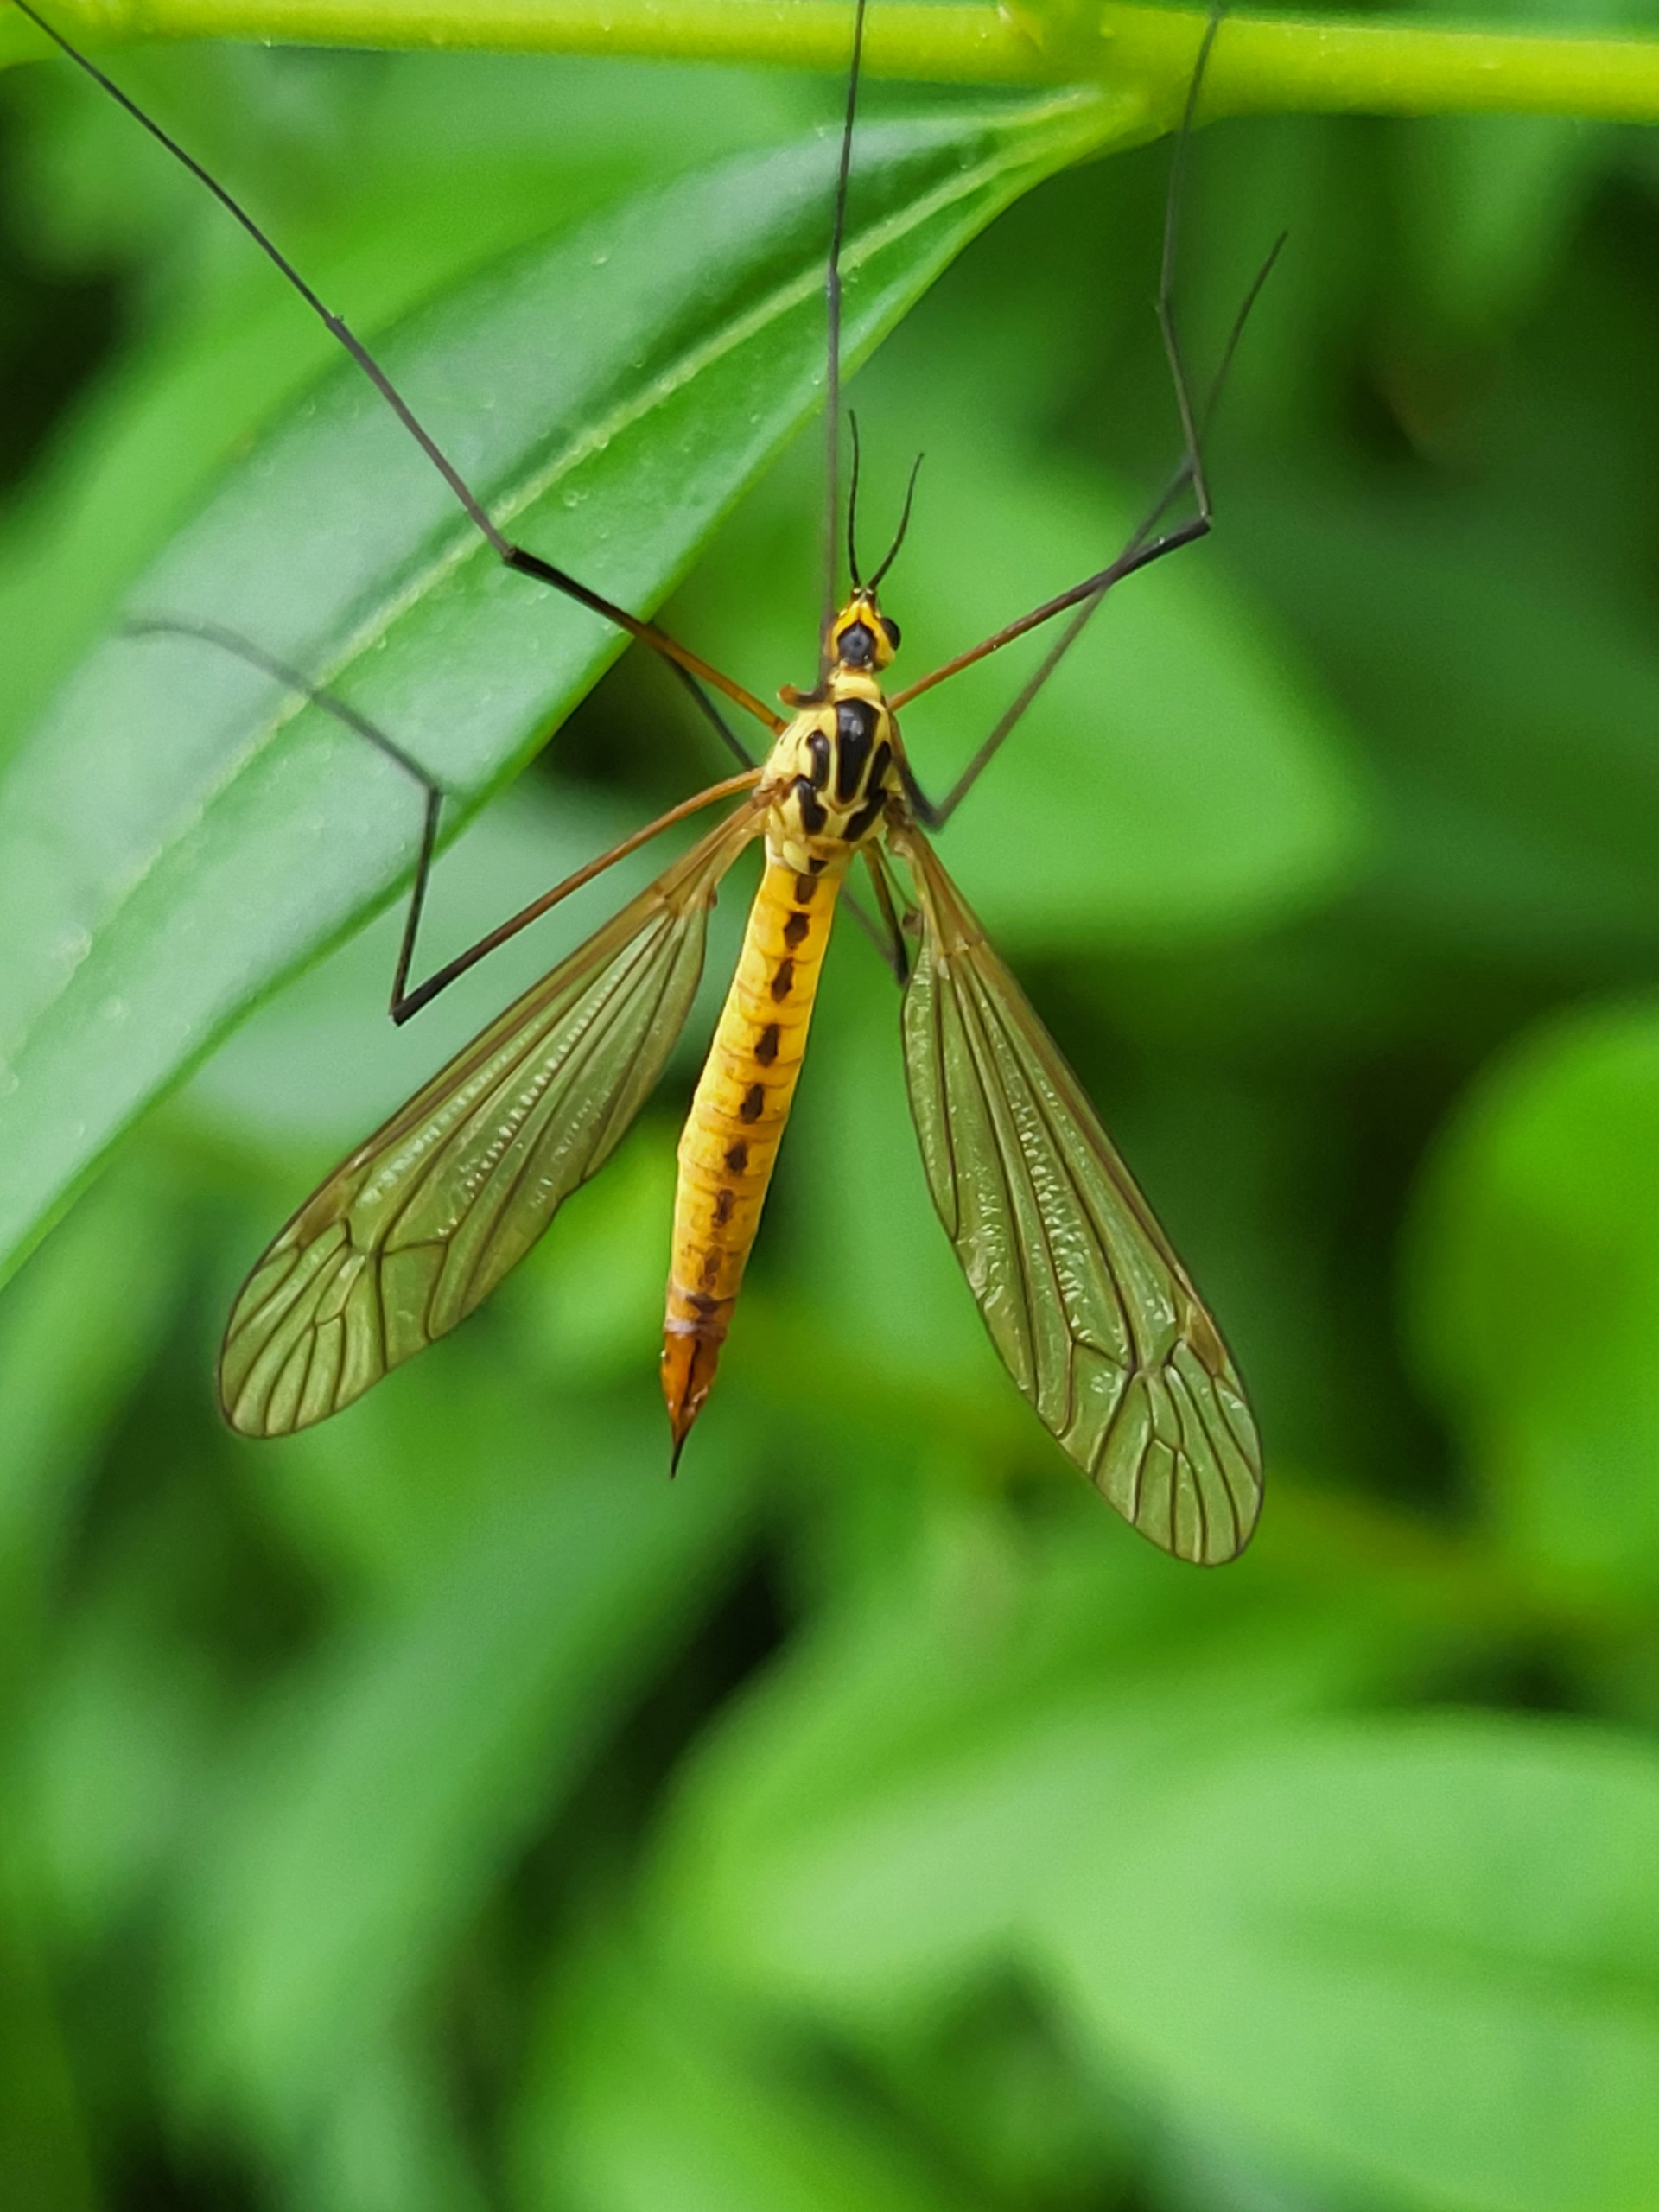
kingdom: Animalia
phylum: Arthropoda
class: Insecta
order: Diptera
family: Tipulidae
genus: Nephrotoma
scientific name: Nephrotoma flavescens
